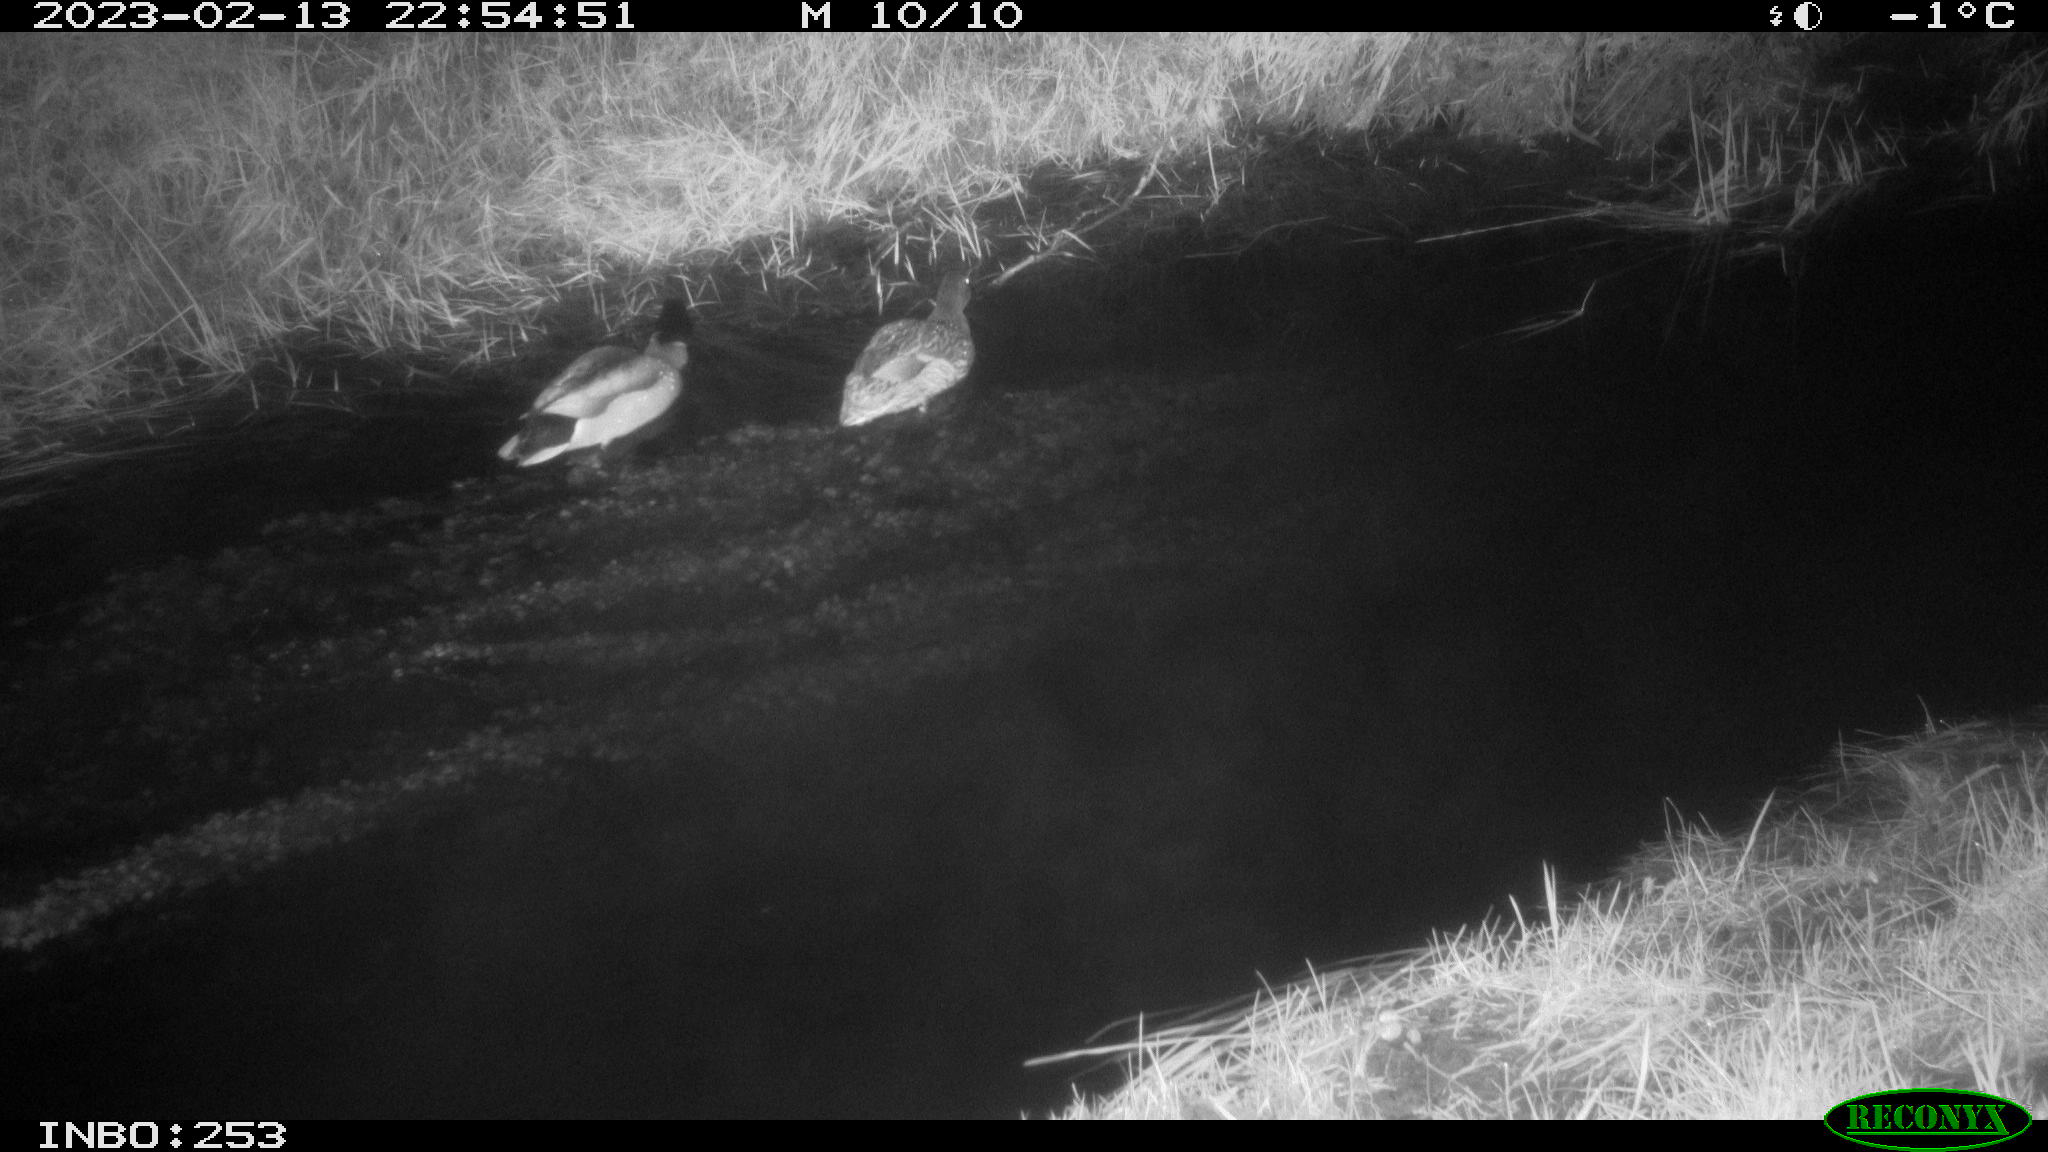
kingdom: Animalia
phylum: Chordata
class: Aves
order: Anseriformes
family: Anatidae
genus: Anas
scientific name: Anas
